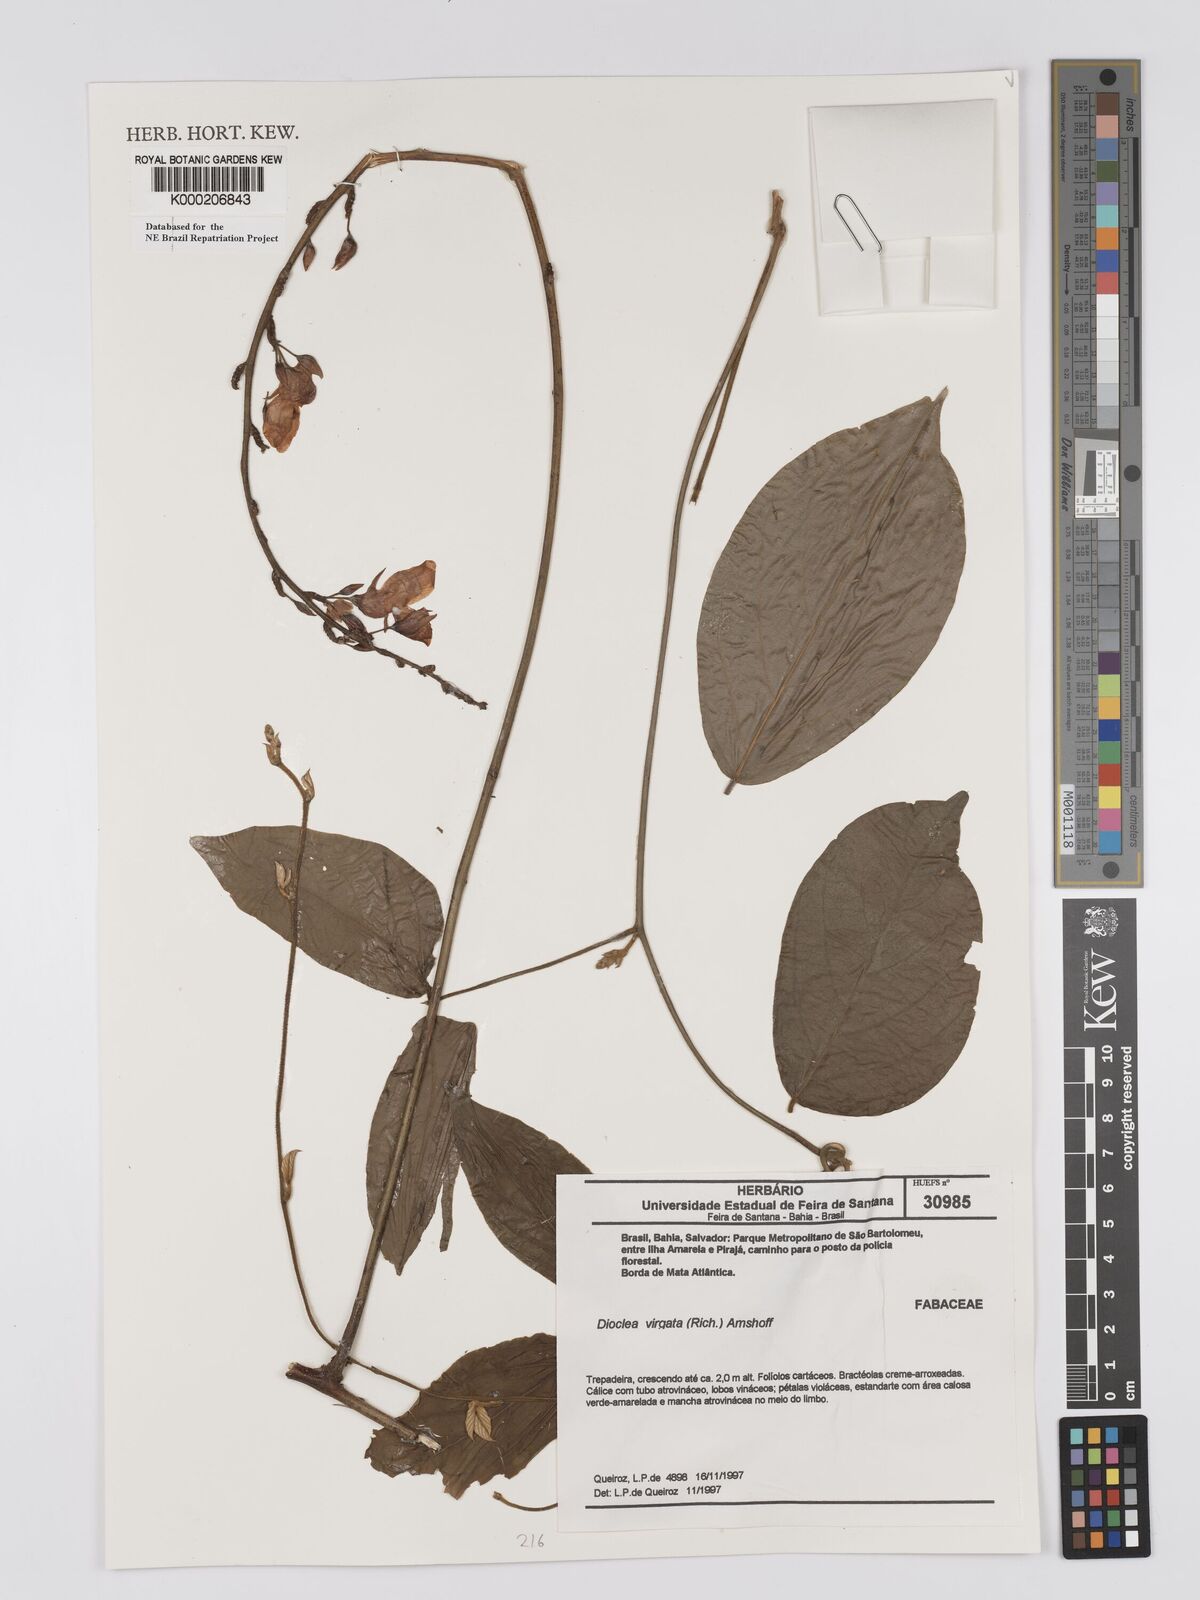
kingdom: Plantae
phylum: Tracheophyta
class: Magnoliopsida
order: Fabales
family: Fabaceae
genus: Dioclea
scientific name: Dioclea virgata
